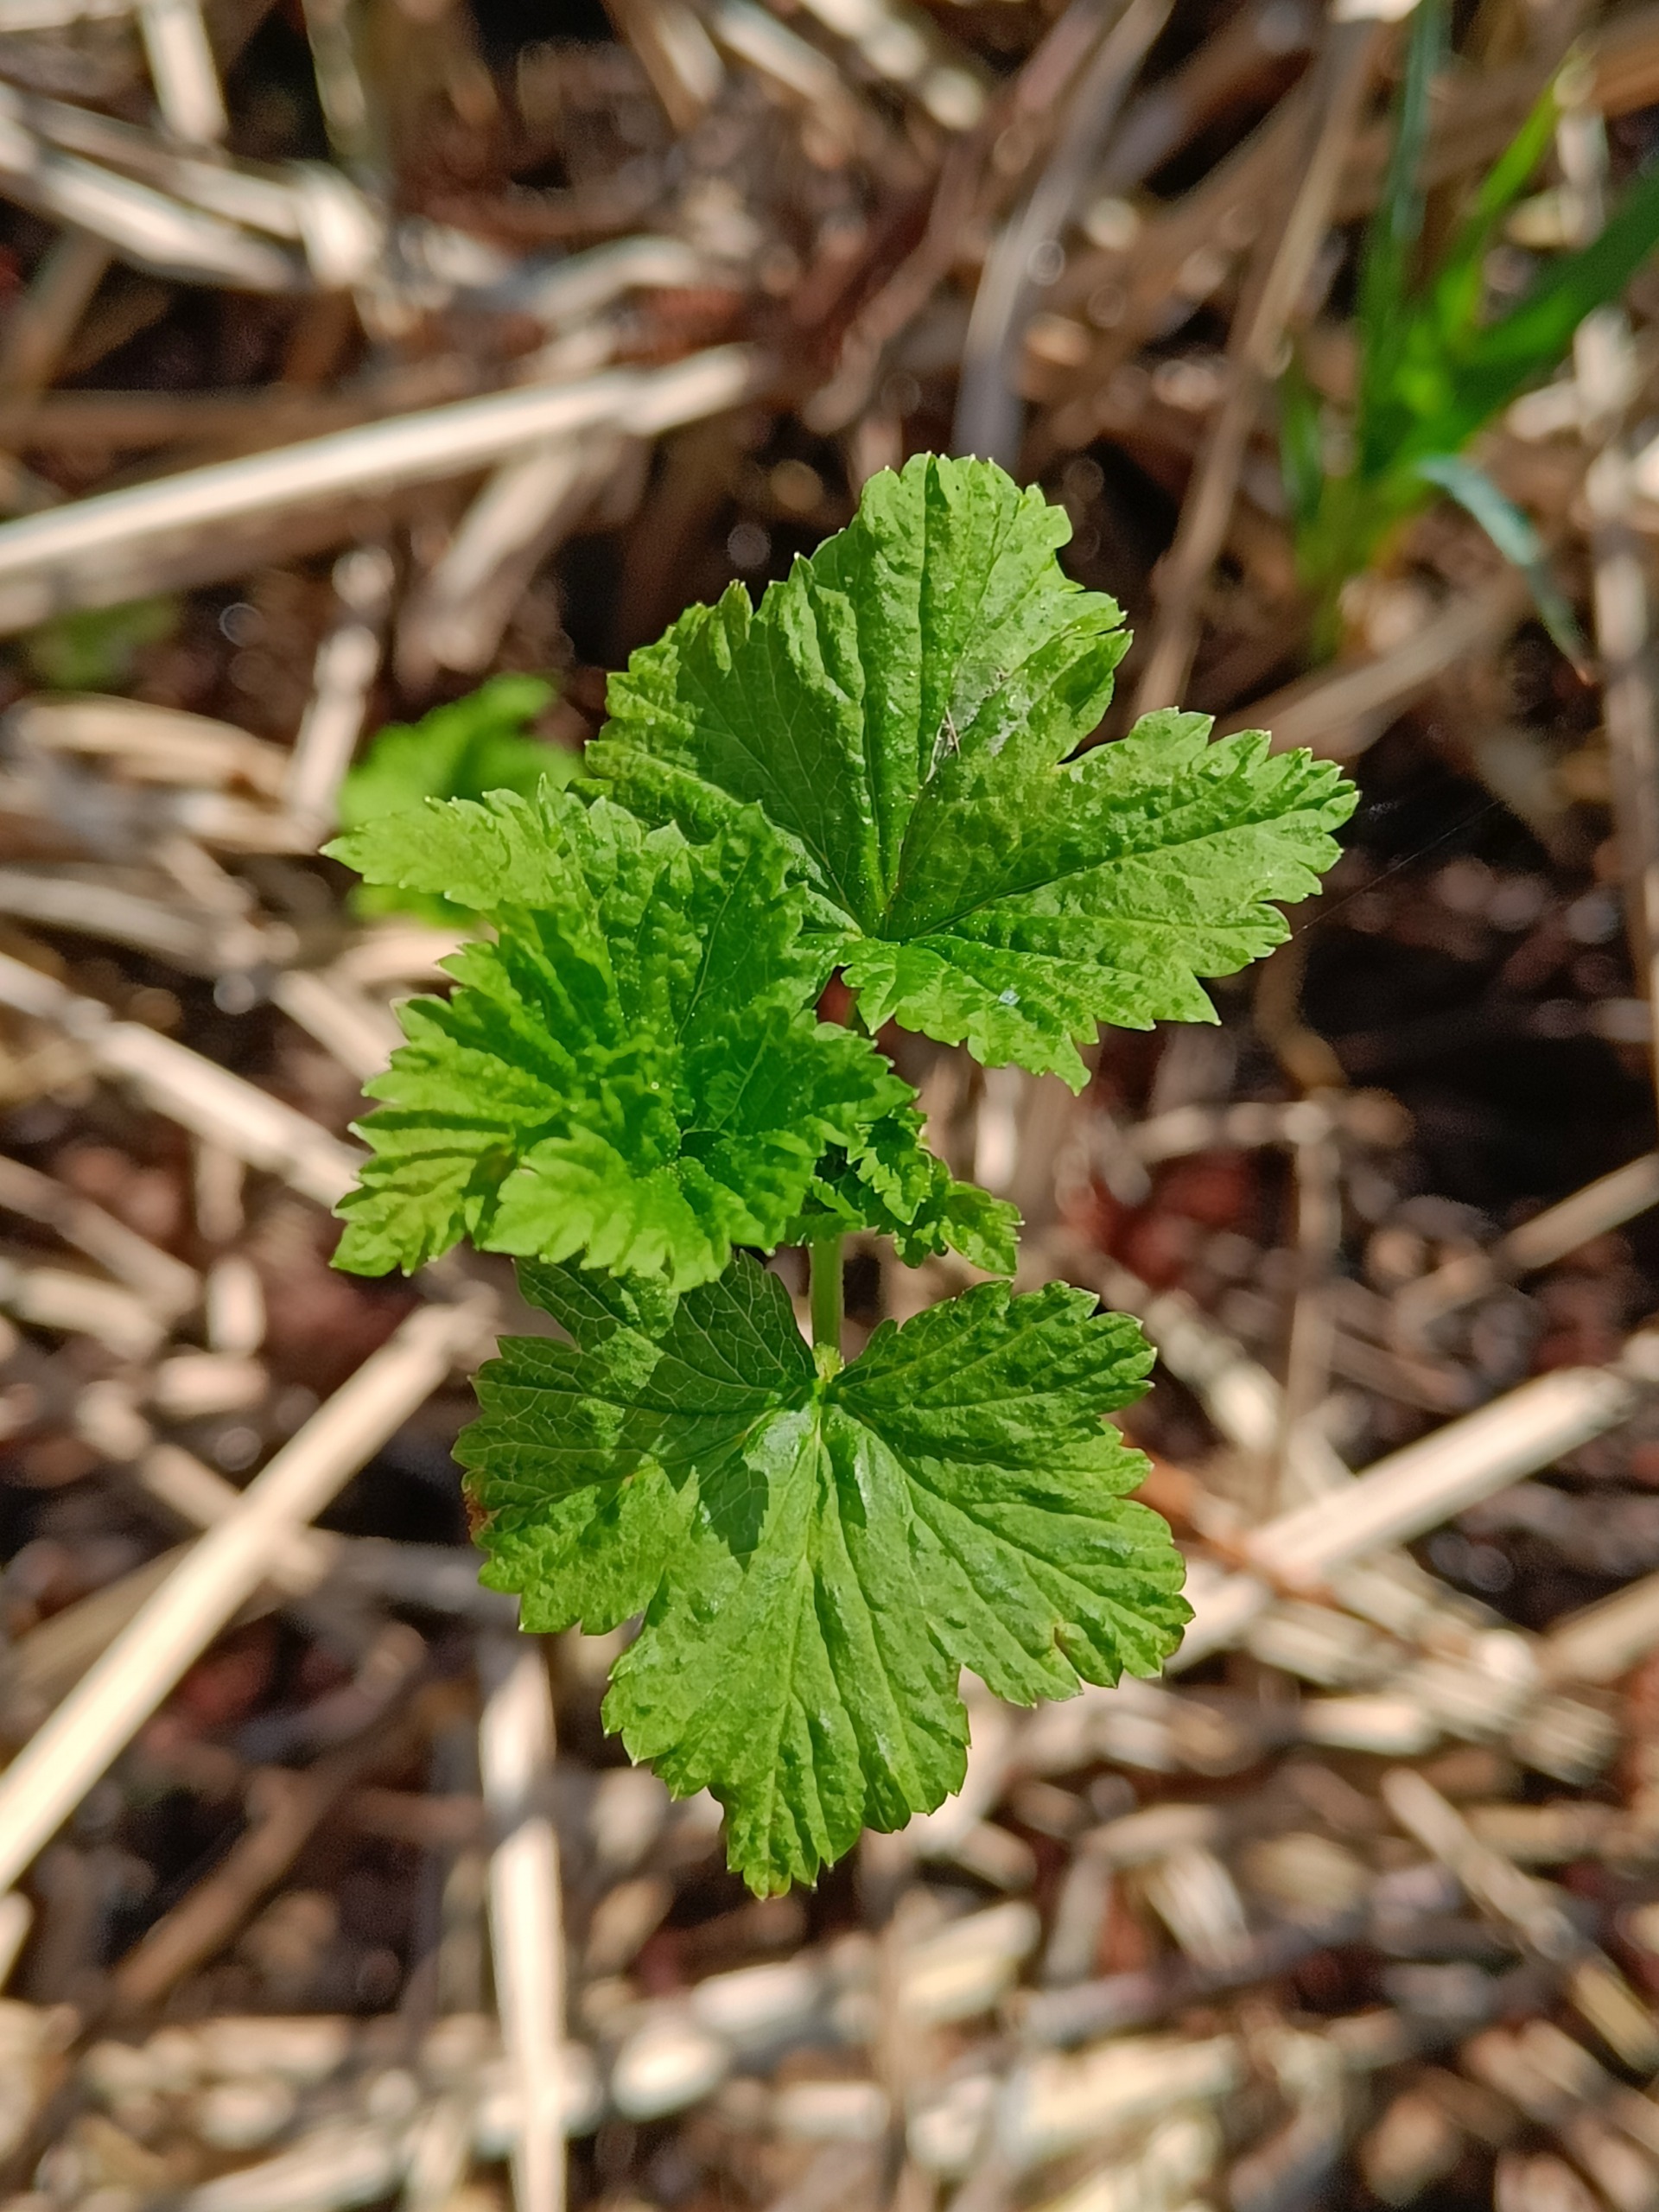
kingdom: Plantae
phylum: Tracheophyta
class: Magnoliopsida
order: Saxifragales
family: Grossulariaceae
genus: Ribes
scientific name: Ribes nigrum
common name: Solbær
